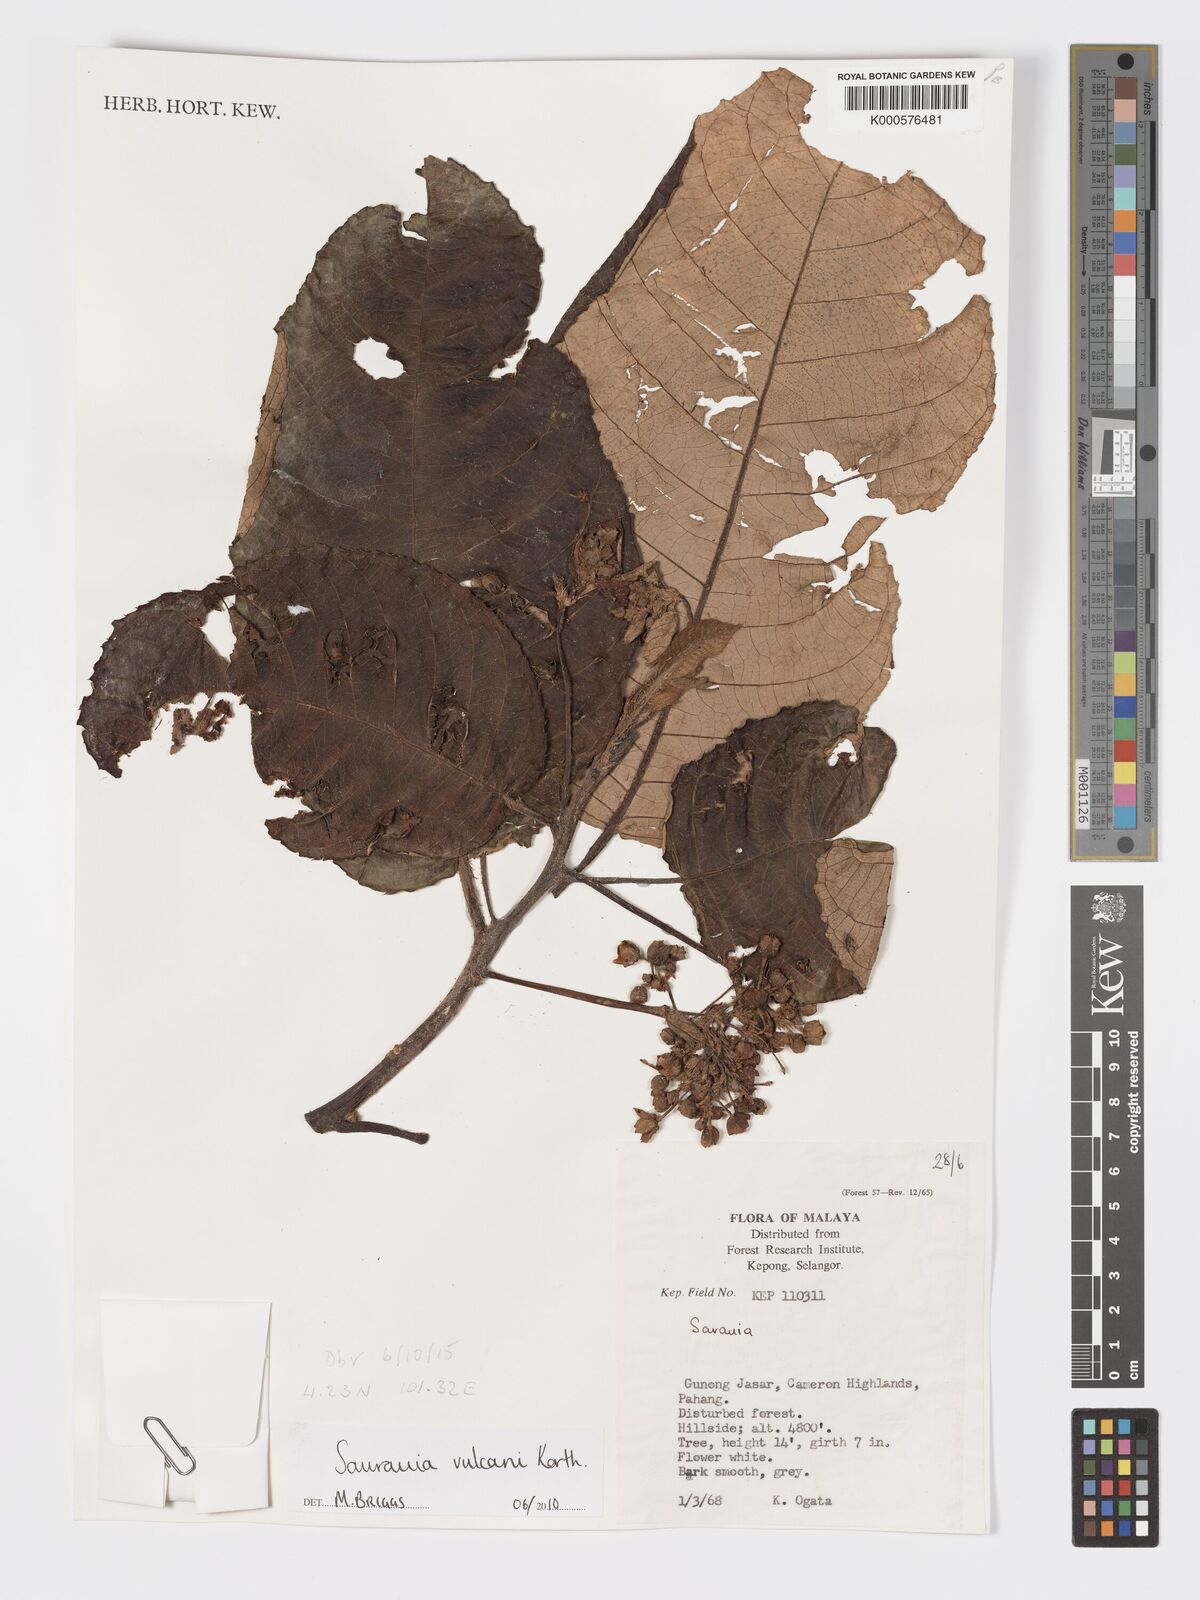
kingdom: Plantae
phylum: Tracheophyta
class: Magnoliopsida
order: Ericales
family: Actinidiaceae
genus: Saurauia
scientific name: Saurauia vulcani
